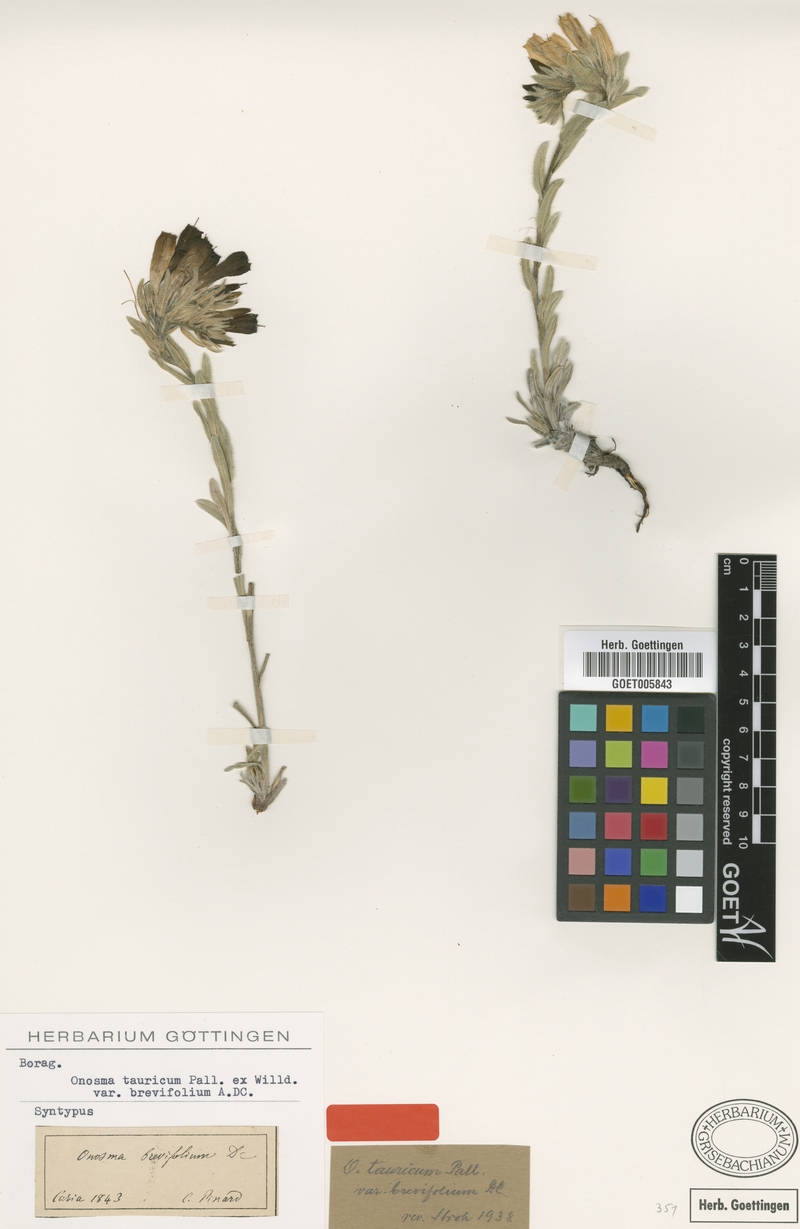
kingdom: Plantae
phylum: Tracheophyta
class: Magnoliopsida
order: Boraginales
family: Boraginaceae
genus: Onosma
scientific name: Onosma cinerea
